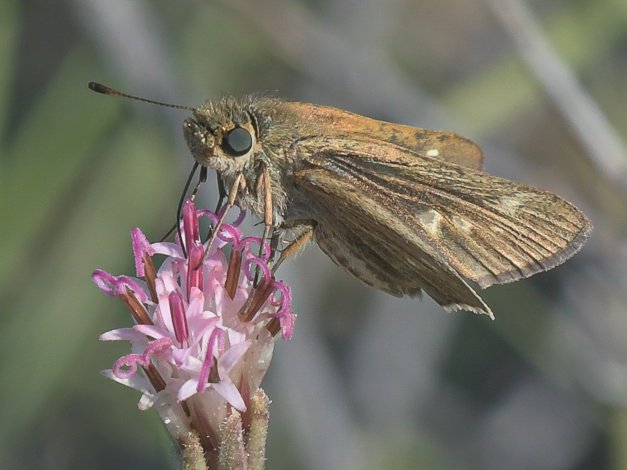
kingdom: Animalia
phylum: Arthropoda
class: Insecta
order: Lepidoptera
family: Hesperiidae
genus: Panoquina
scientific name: Panoquina errans
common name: Wandering Skipper
